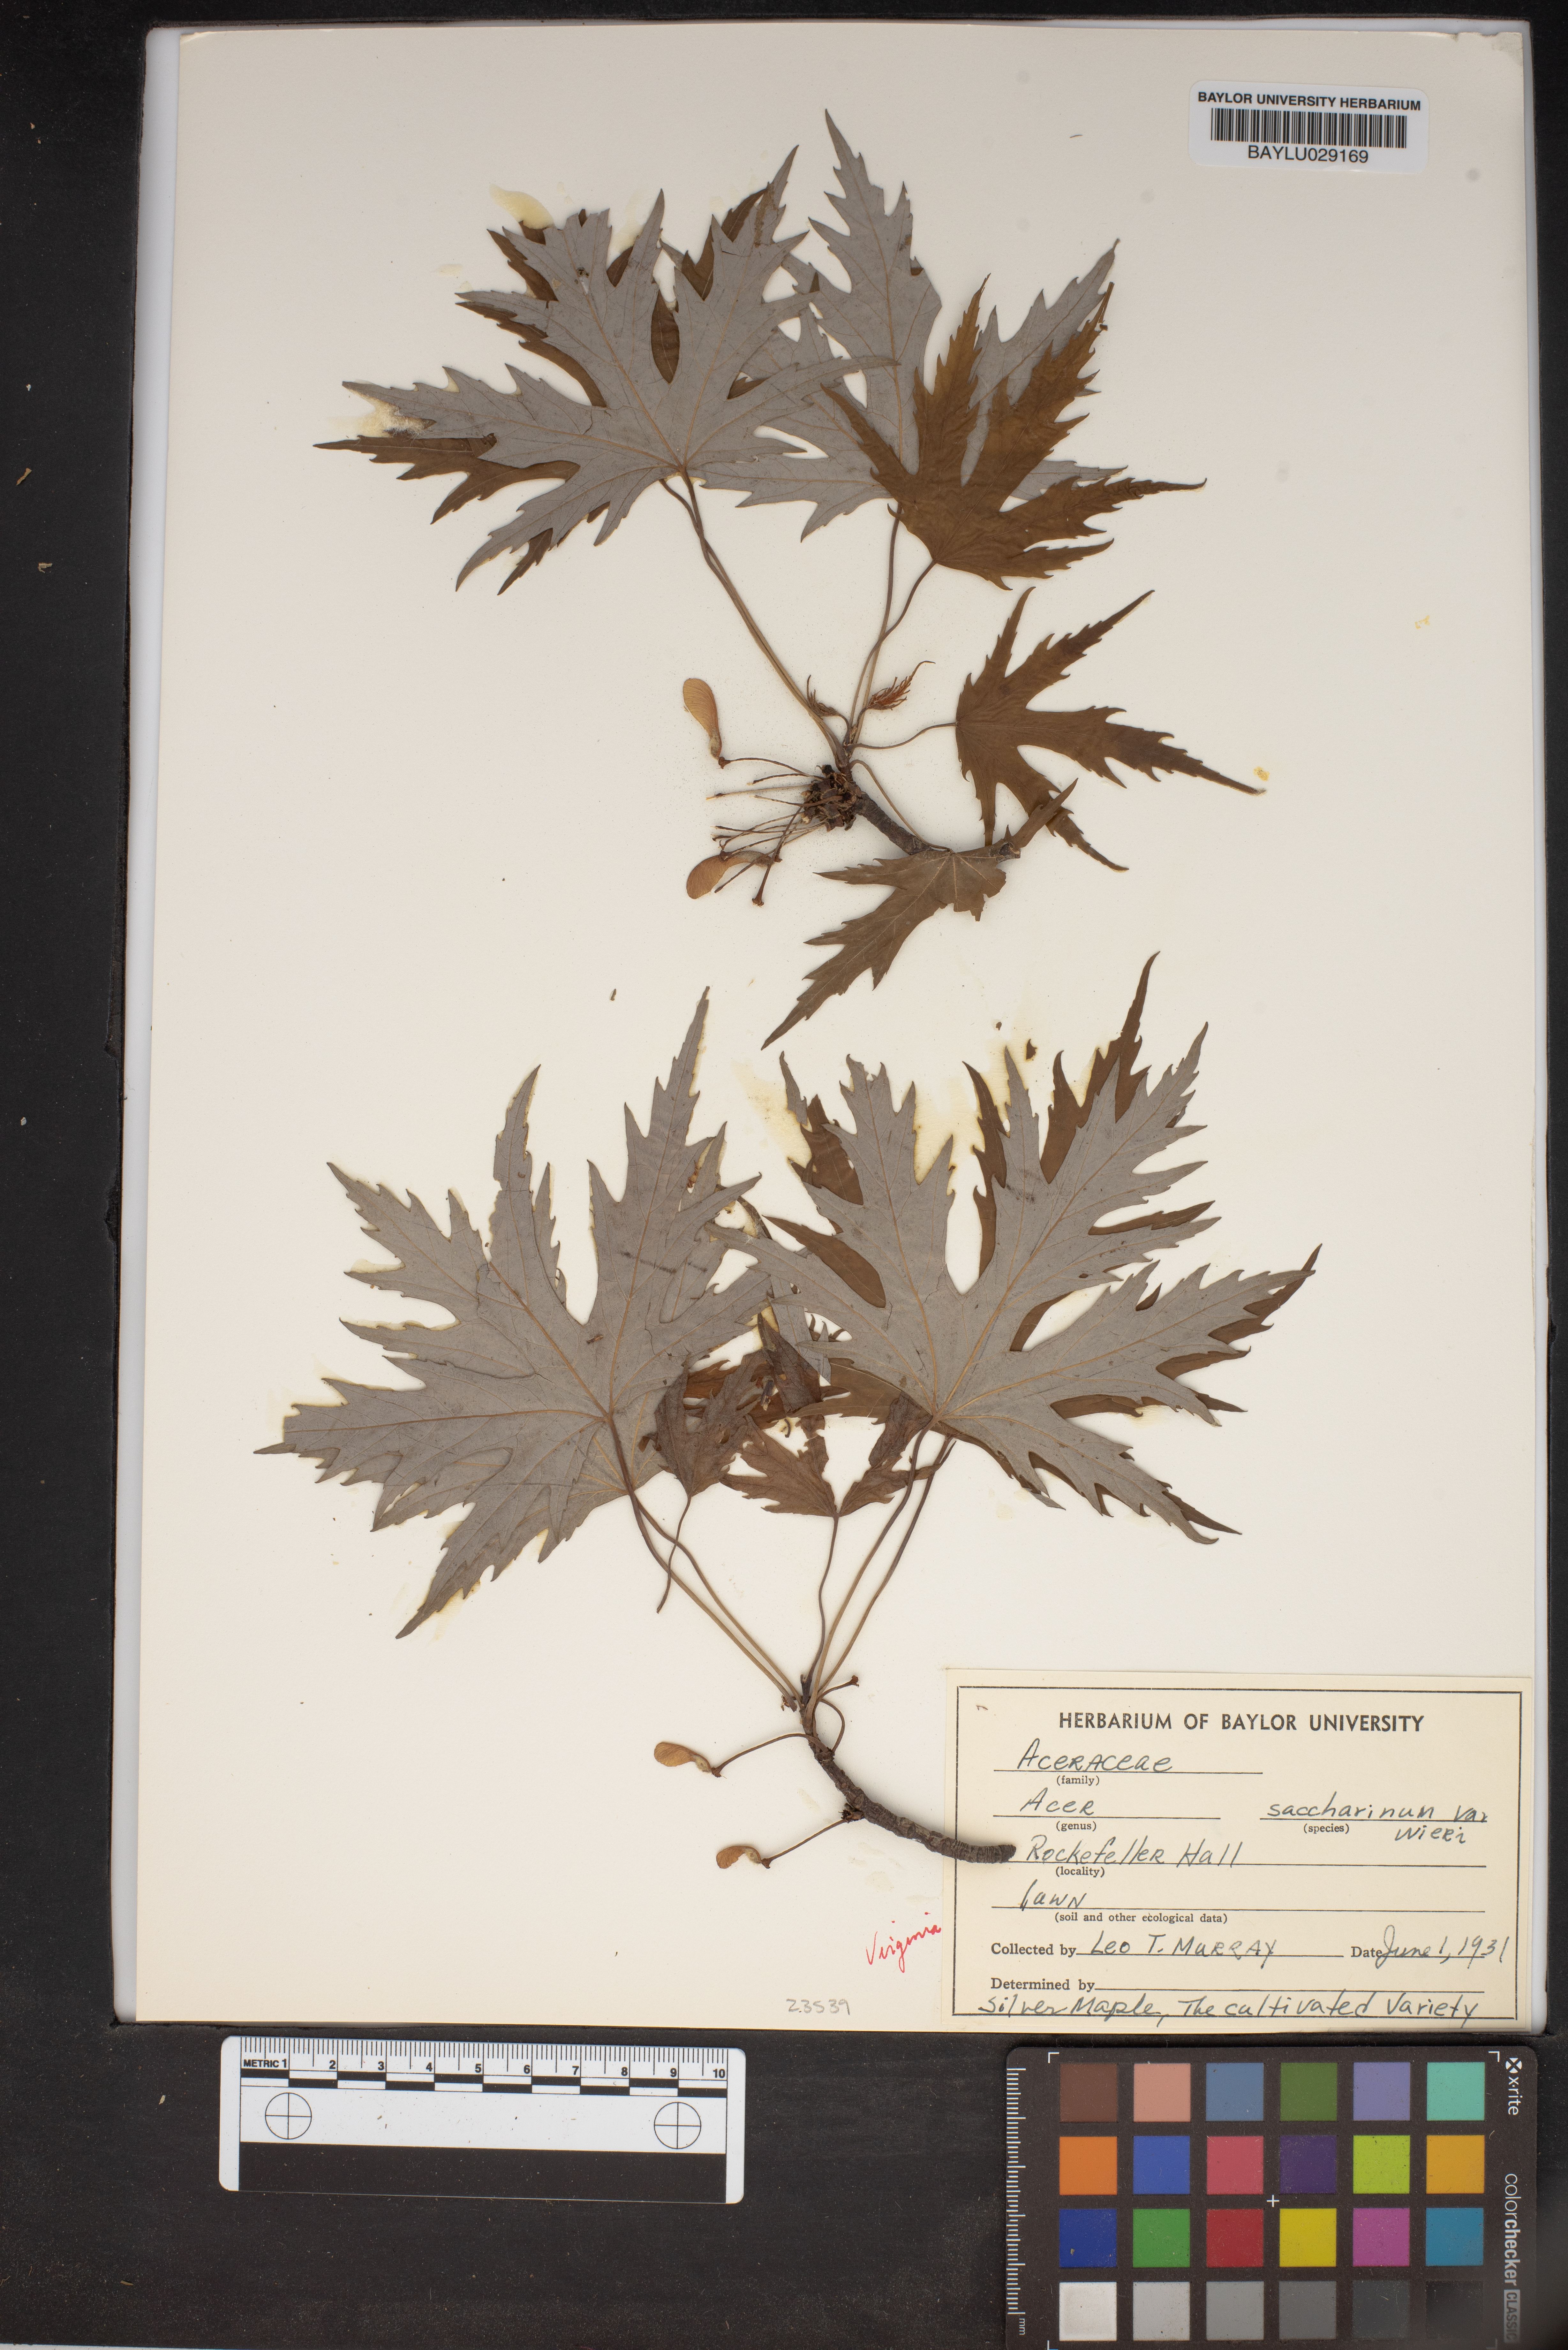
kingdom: Plantae
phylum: Tracheophyta
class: Magnoliopsida
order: Sapindales
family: Sapindaceae
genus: Acer
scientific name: Acer saccharinum
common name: Silver maple
